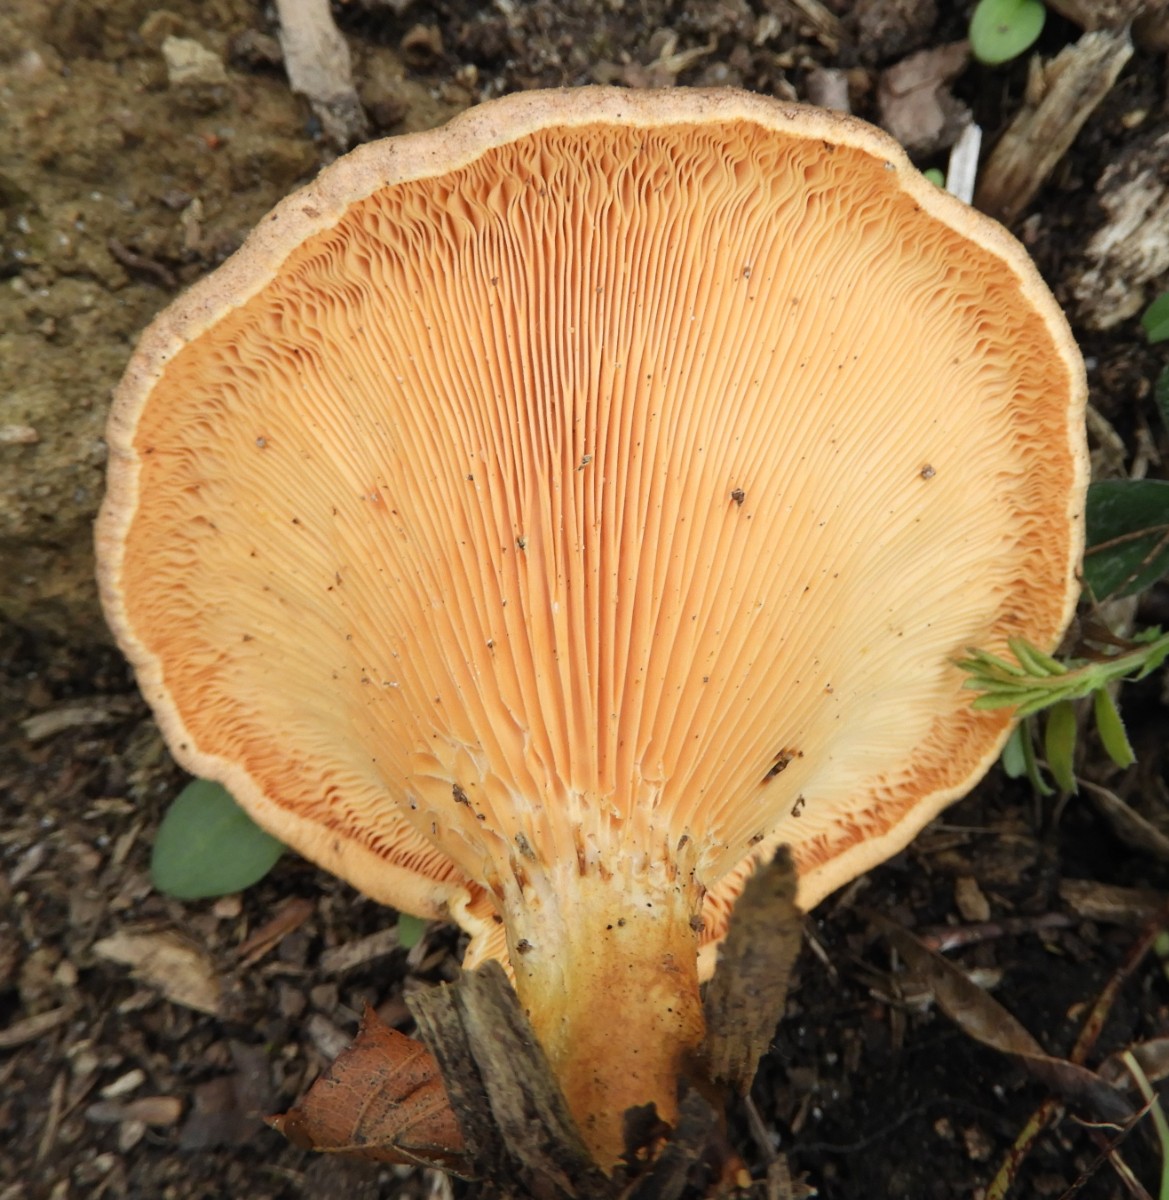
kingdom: Fungi
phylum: Basidiomycota
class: Agaricomycetes
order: Boletales
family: Hygrophoropsidaceae
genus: Hygrophoropsis
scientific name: Hygrophoropsis aurantiaca
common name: almindelig orangekantarel
